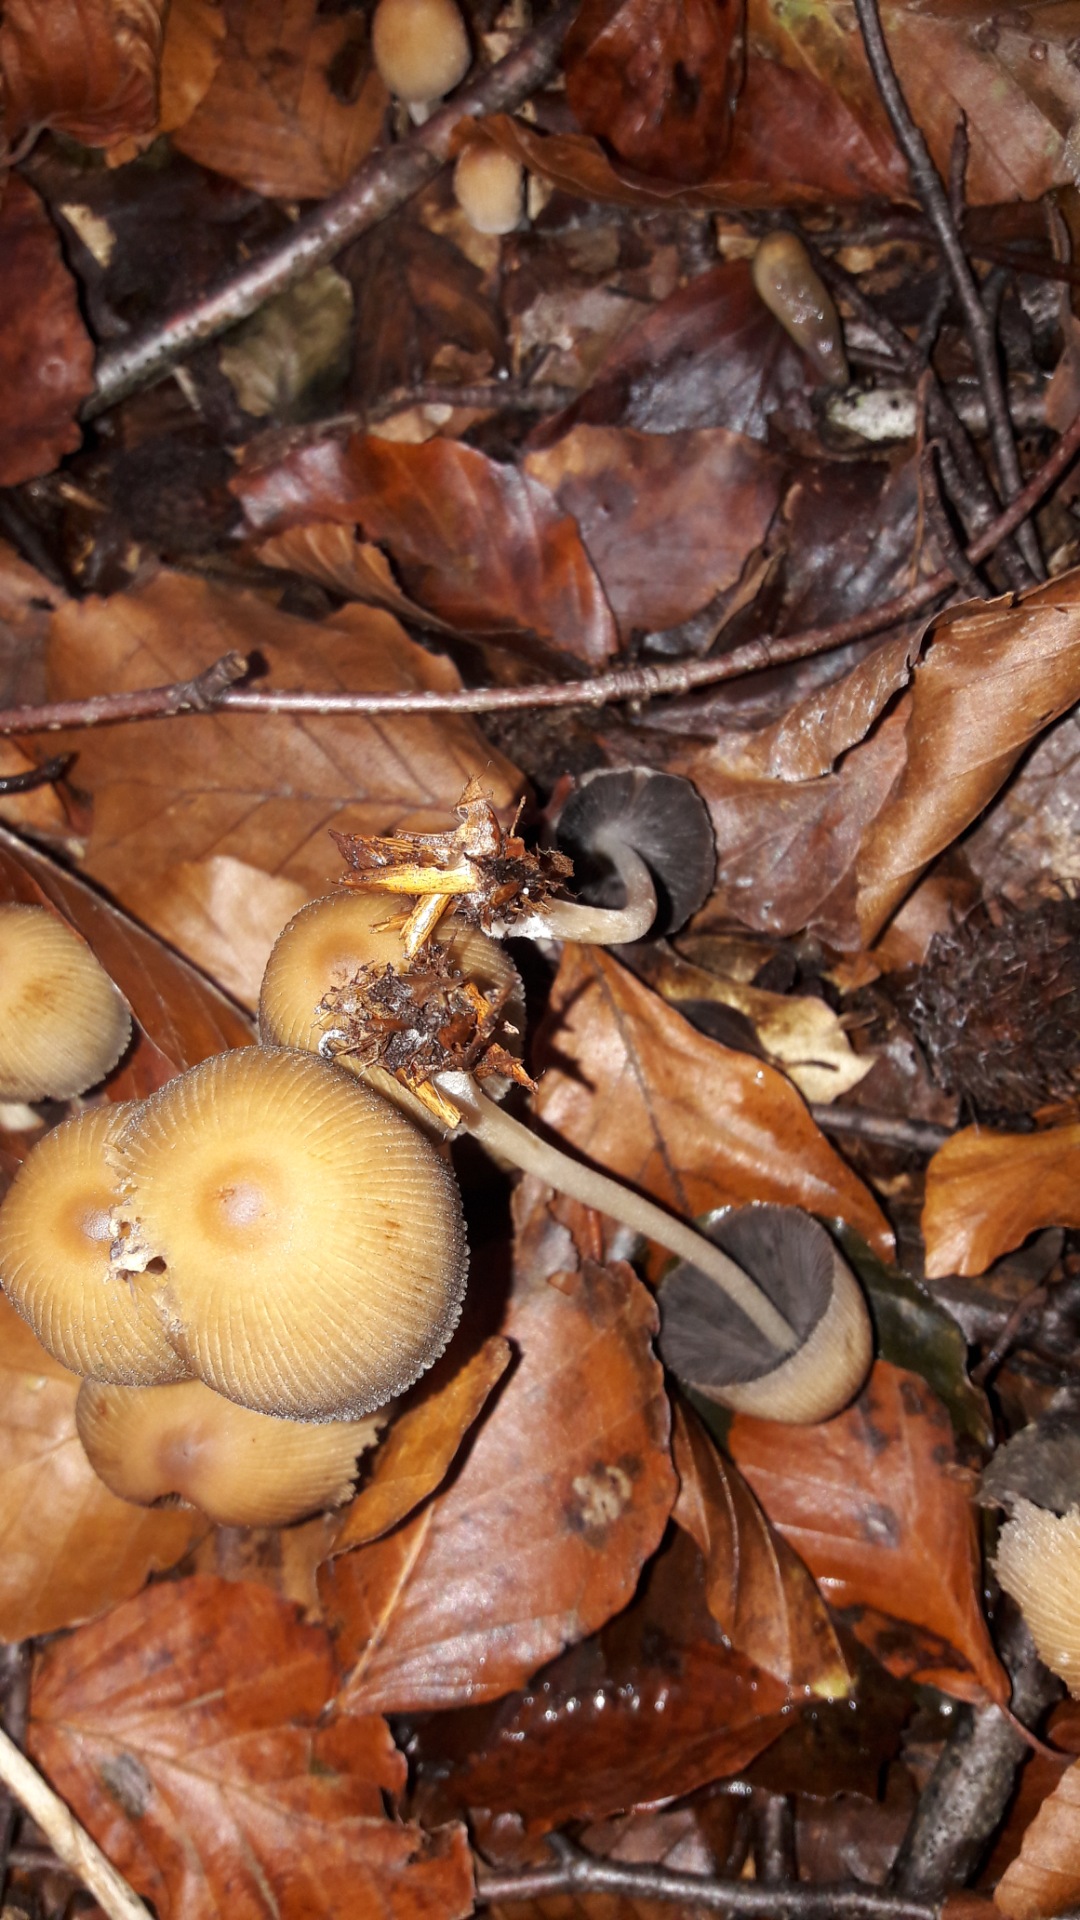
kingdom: Fungi
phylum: Basidiomycota
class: Agaricomycetes
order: Agaricales
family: Psathyrellaceae
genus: Coprinellus
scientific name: Coprinellus
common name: blækhat
